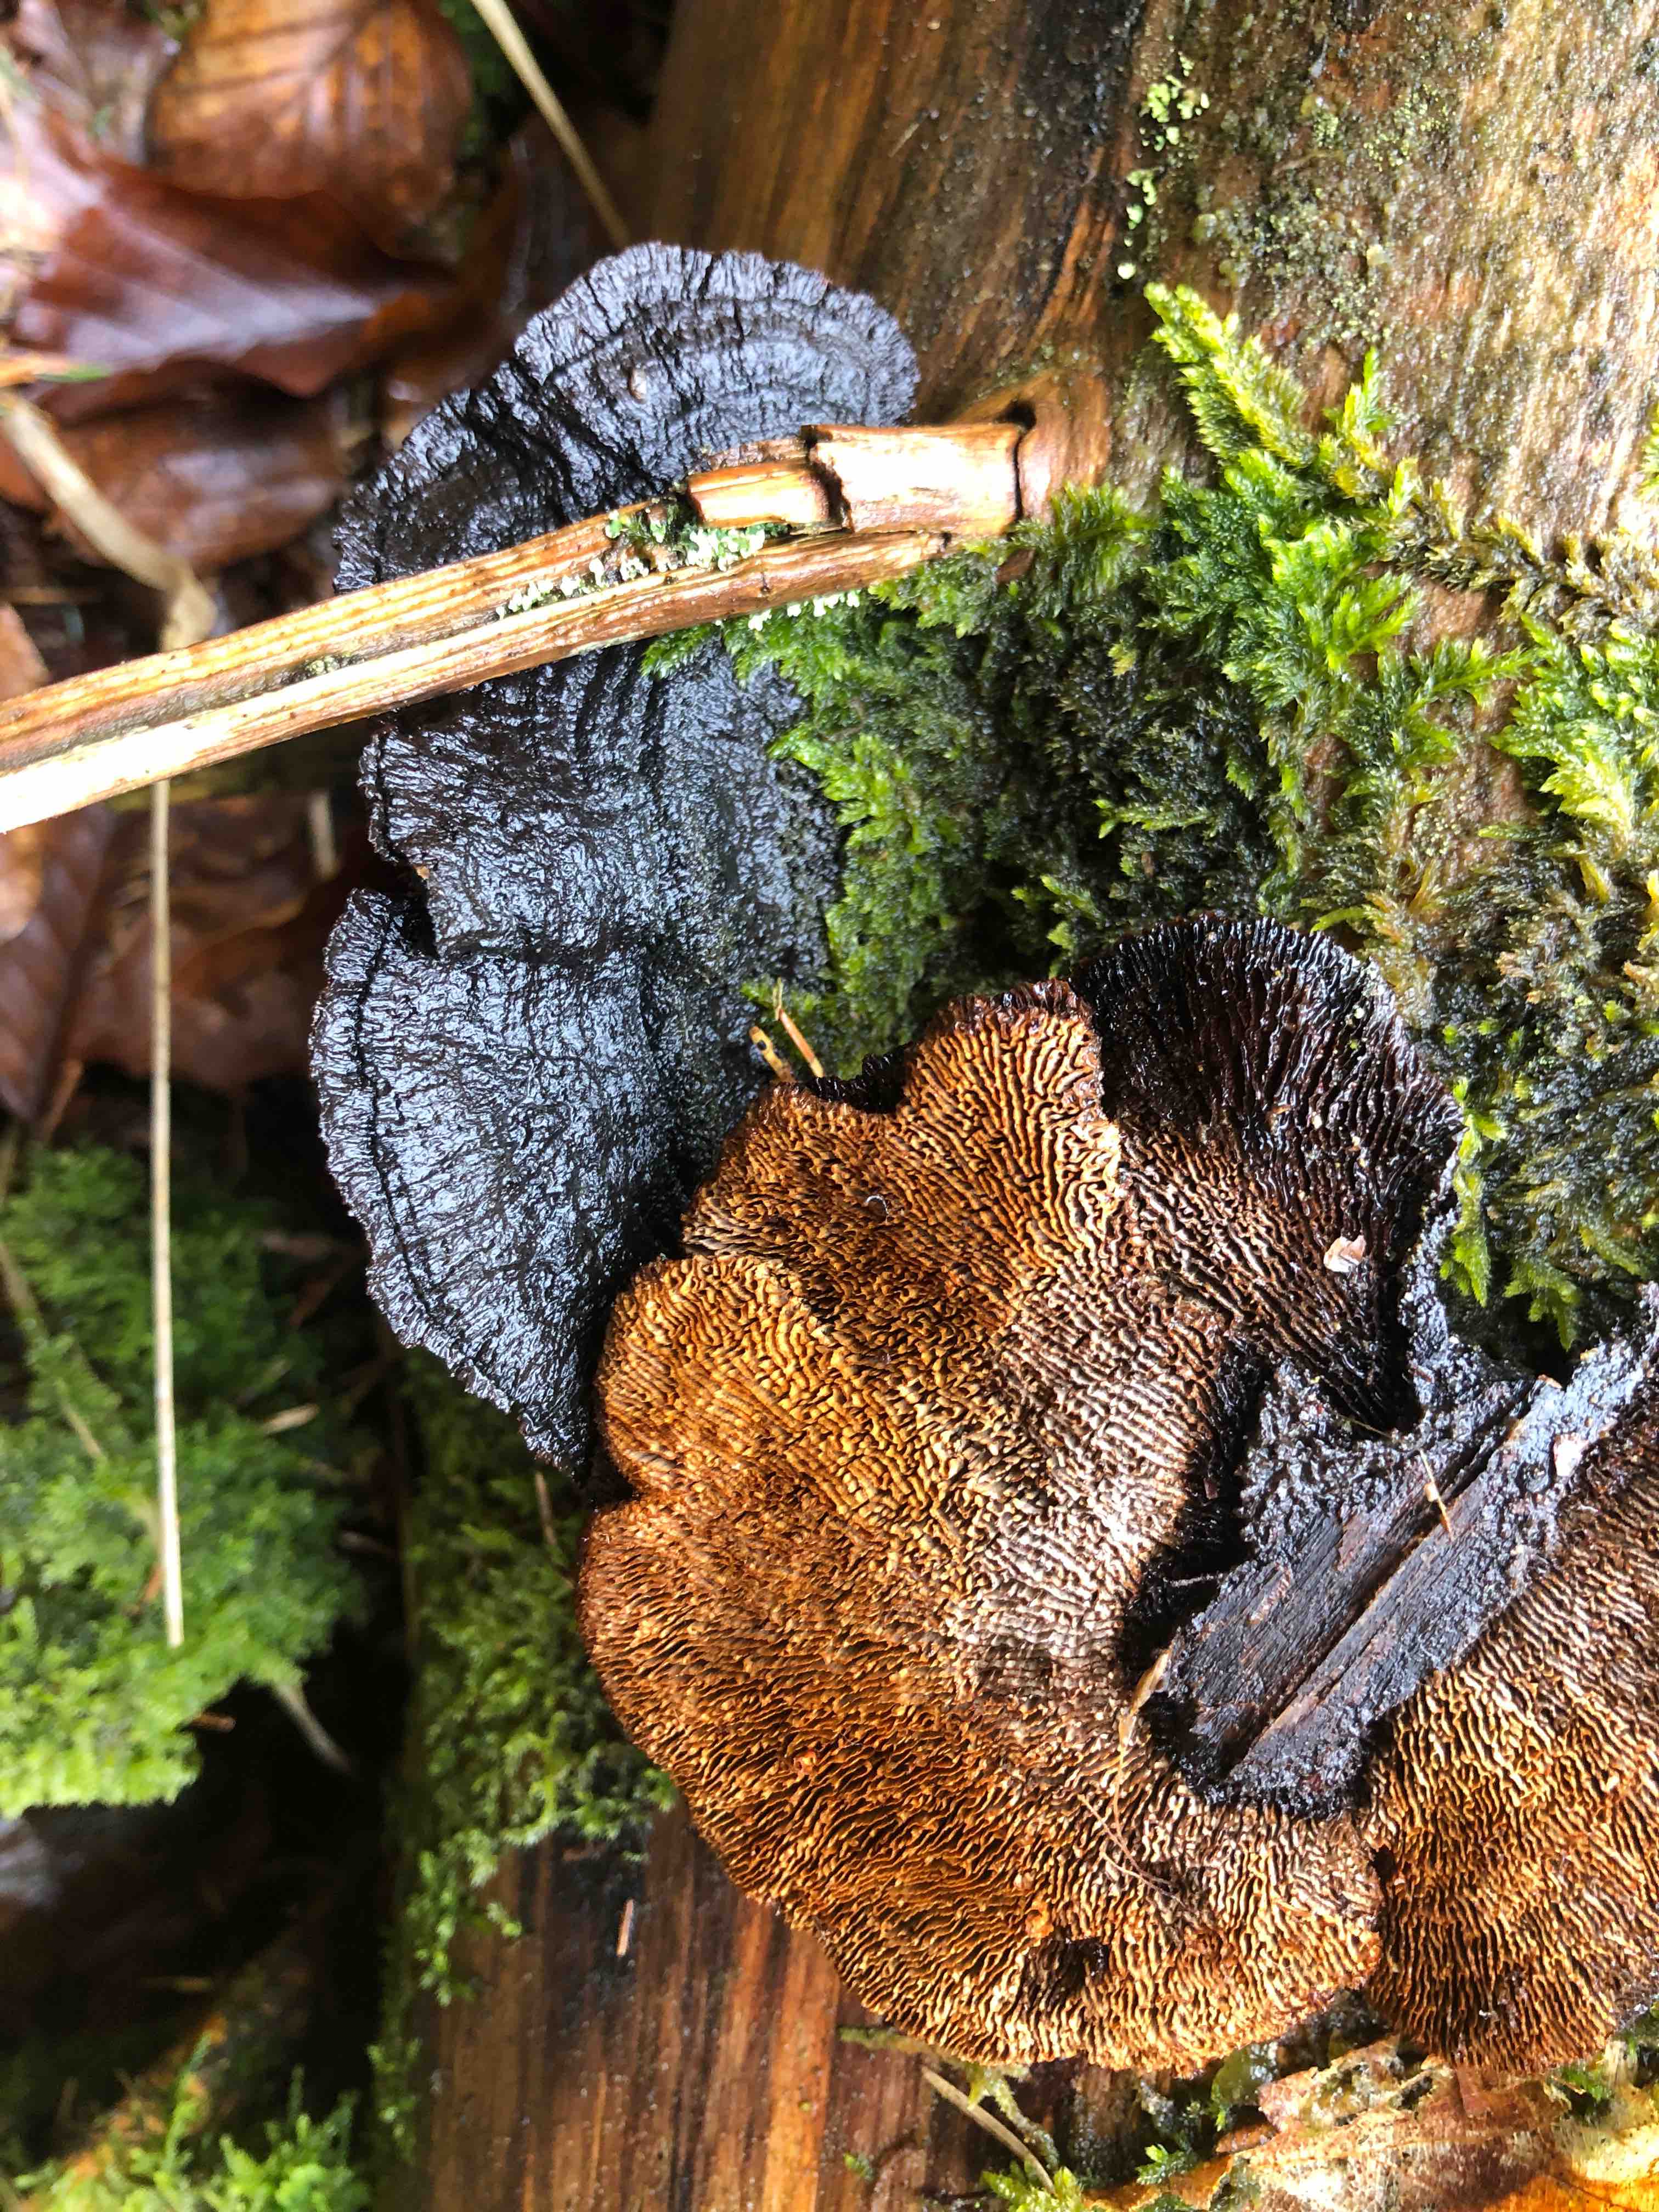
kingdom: Fungi
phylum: Basidiomycota
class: Agaricomycetes
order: Gloeophyllales
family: Gloeophyllaceae
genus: Gloeophyllum
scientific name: Gloeophyllum sepiarium
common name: fyrre-korkhat
